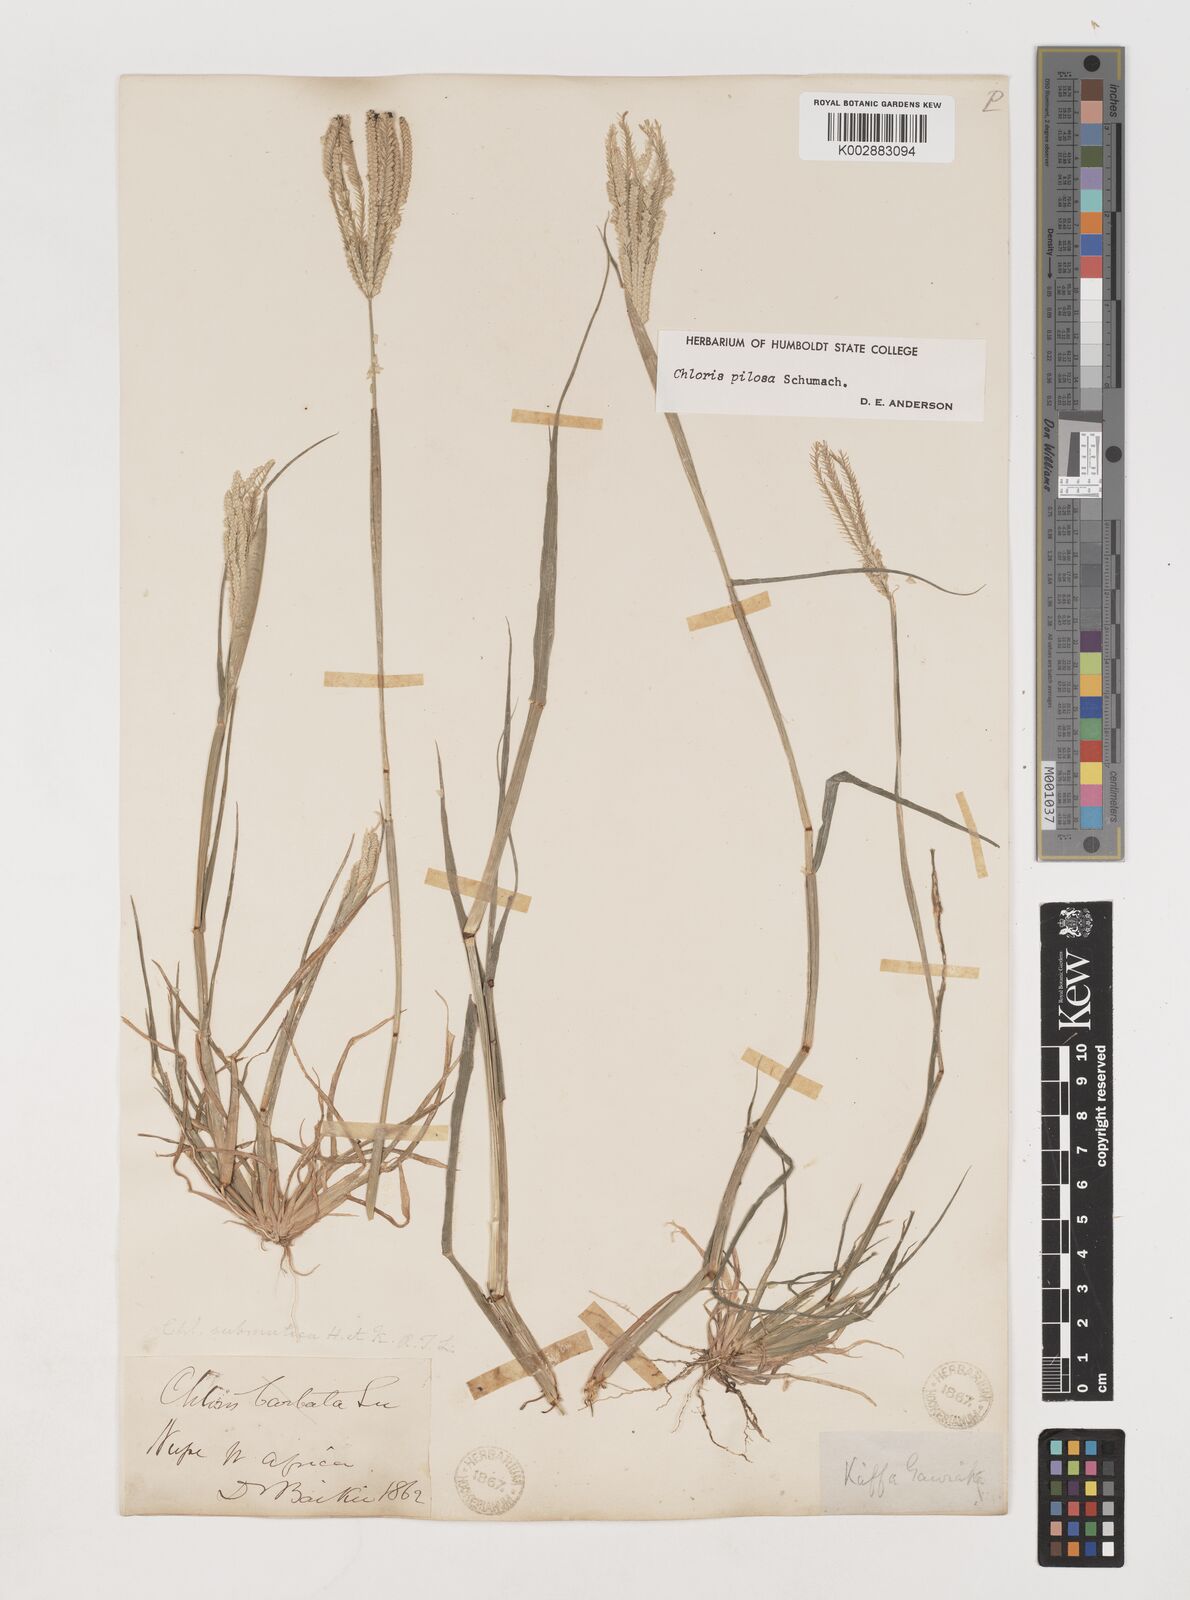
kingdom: Plantae
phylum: Tracheophyta
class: Liliopsida
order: Poales
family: Poaceae
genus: Chloris
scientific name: Chloris pilosa
